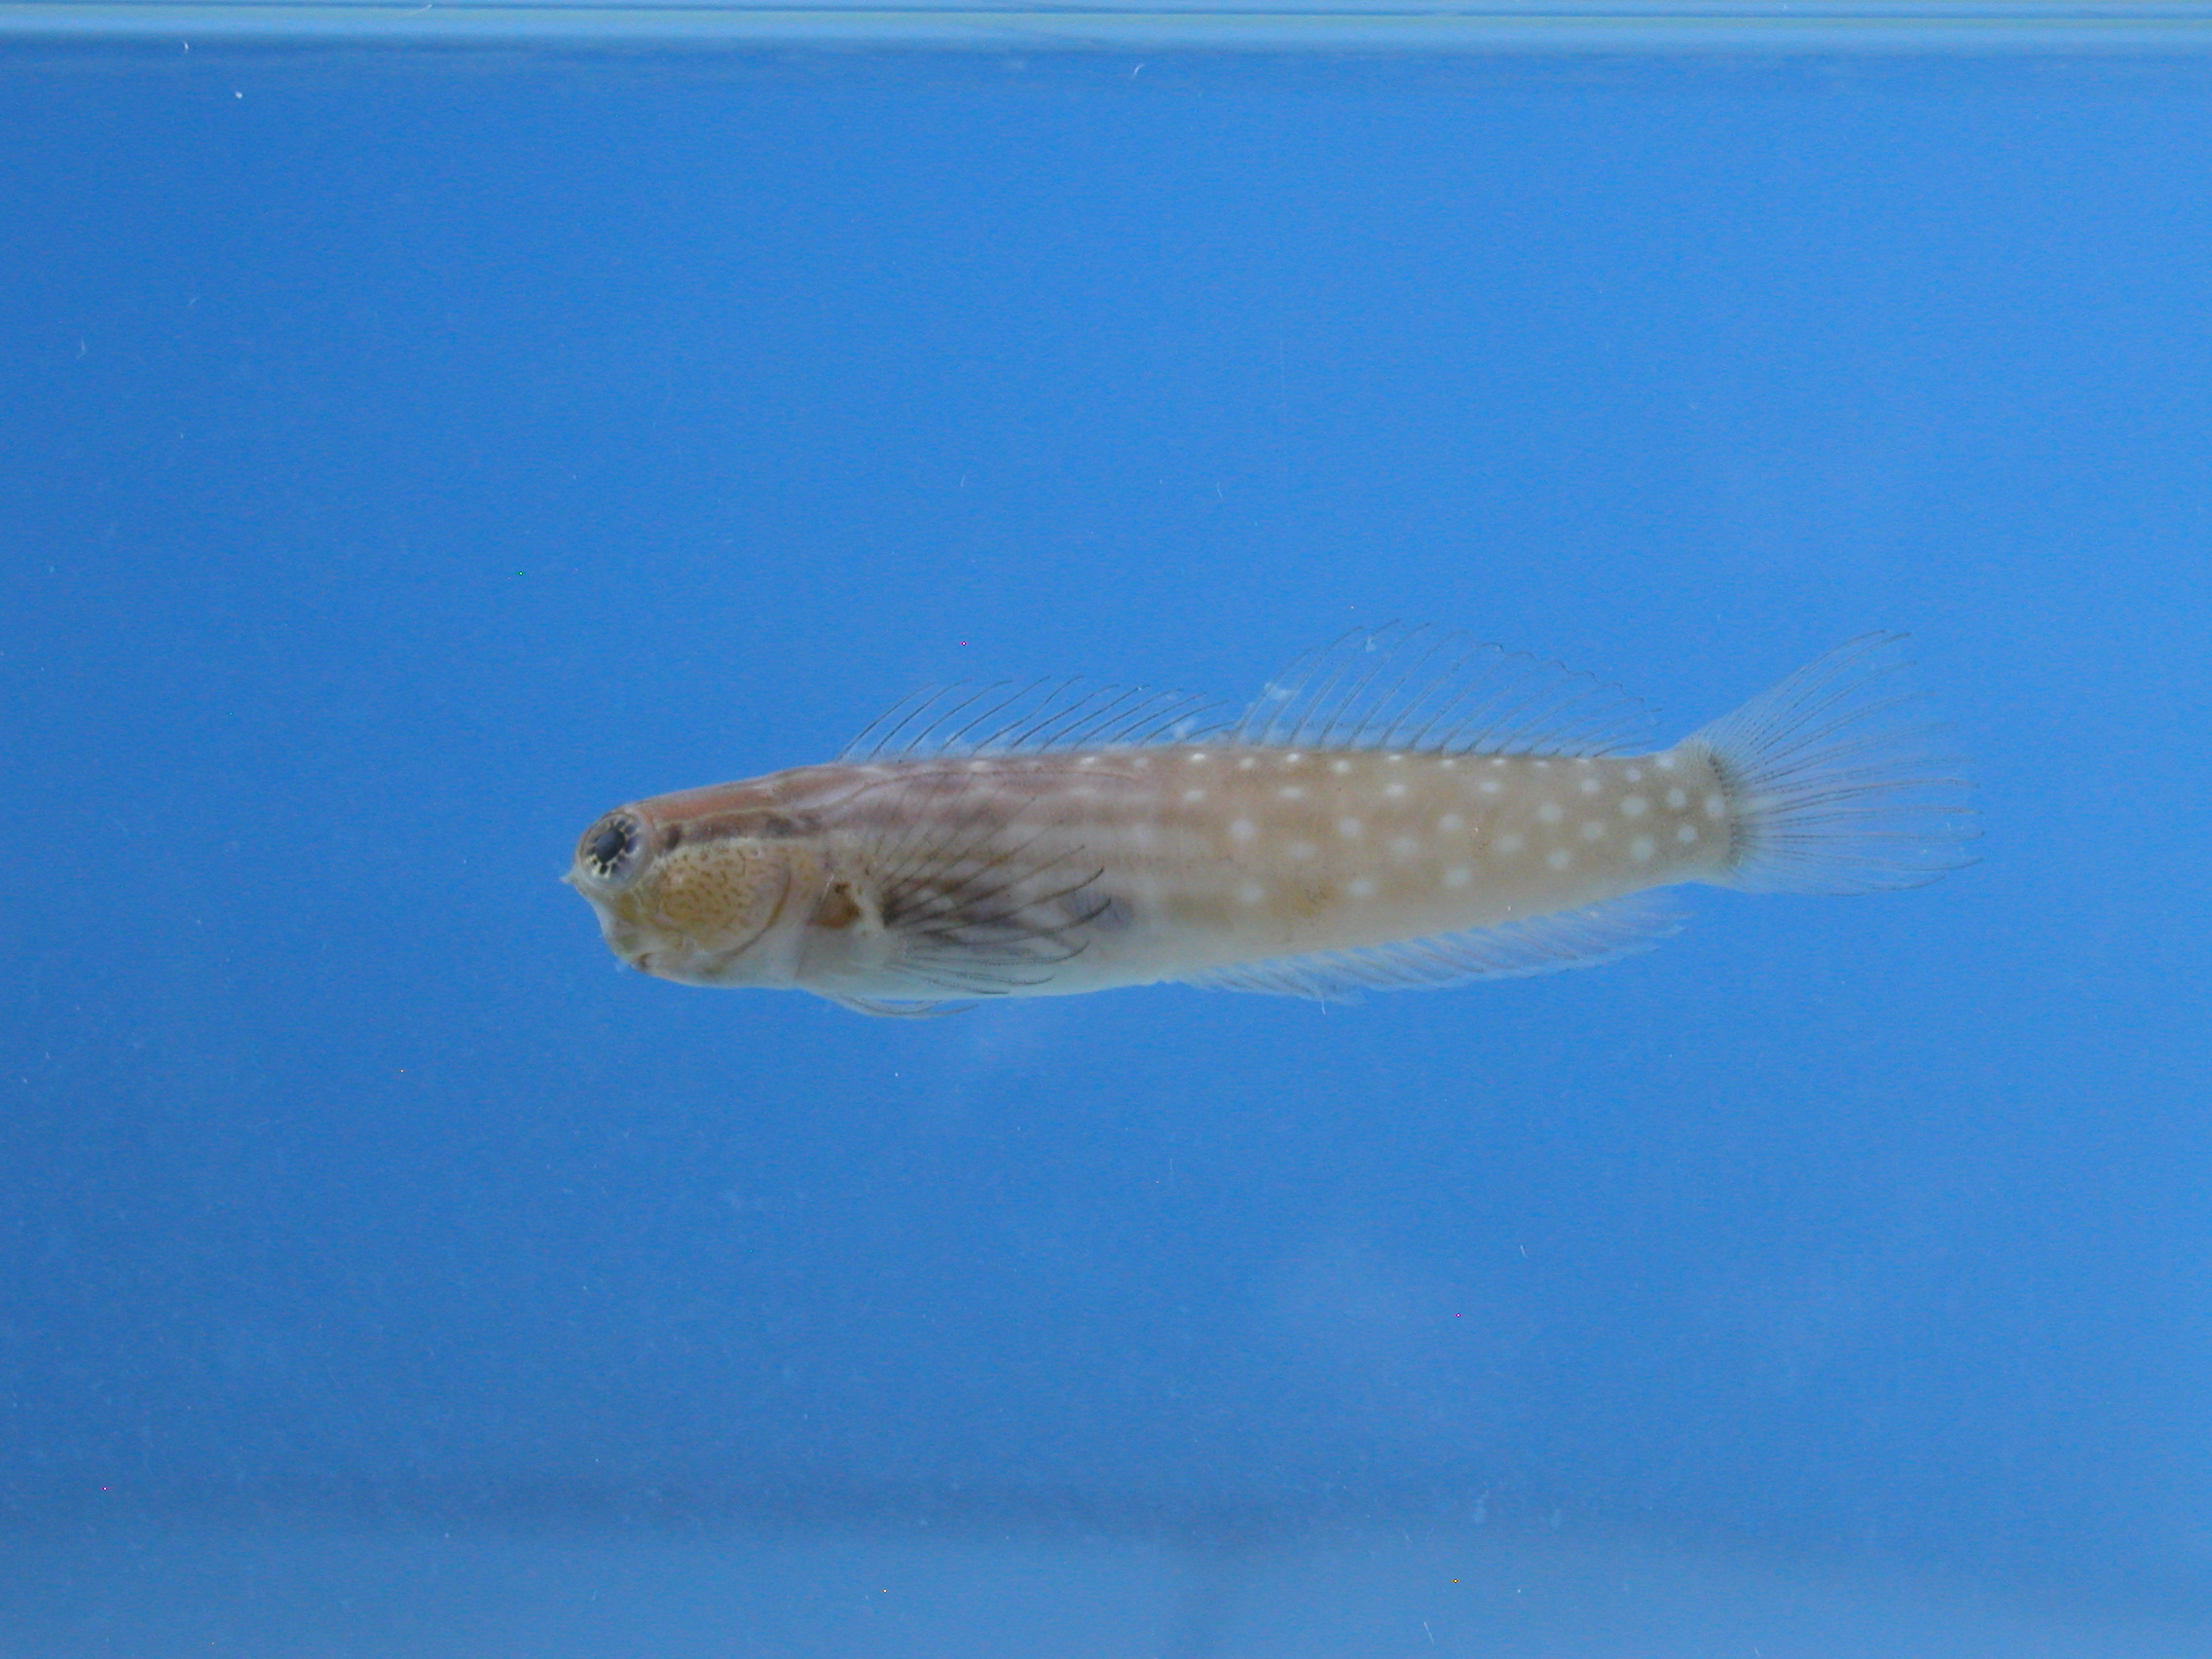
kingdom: Animalia
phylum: Chordata
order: Perciformes
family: Blenniidae
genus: Ecsenius
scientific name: Ecsenius nalolo
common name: Nalolo
